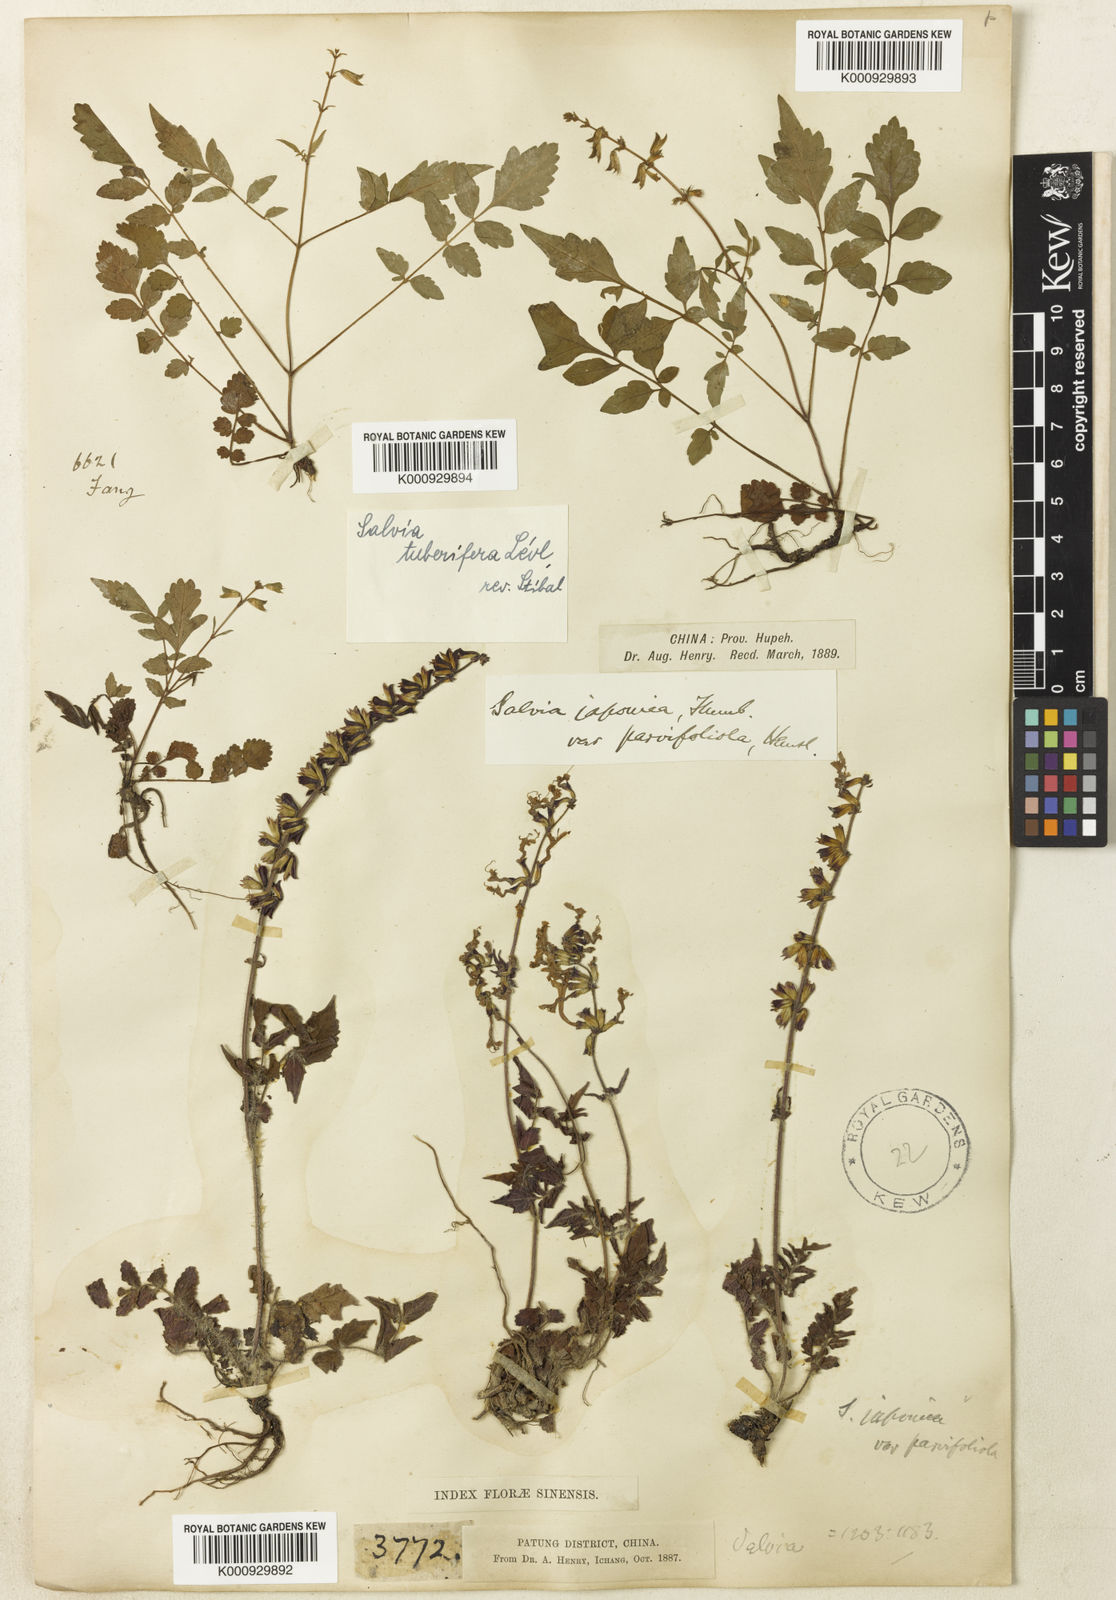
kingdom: Plantae
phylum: Tracheophyta
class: Magnoliopsida
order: Lamiales
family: Lamiaceae
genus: Salvia
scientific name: Salvia
